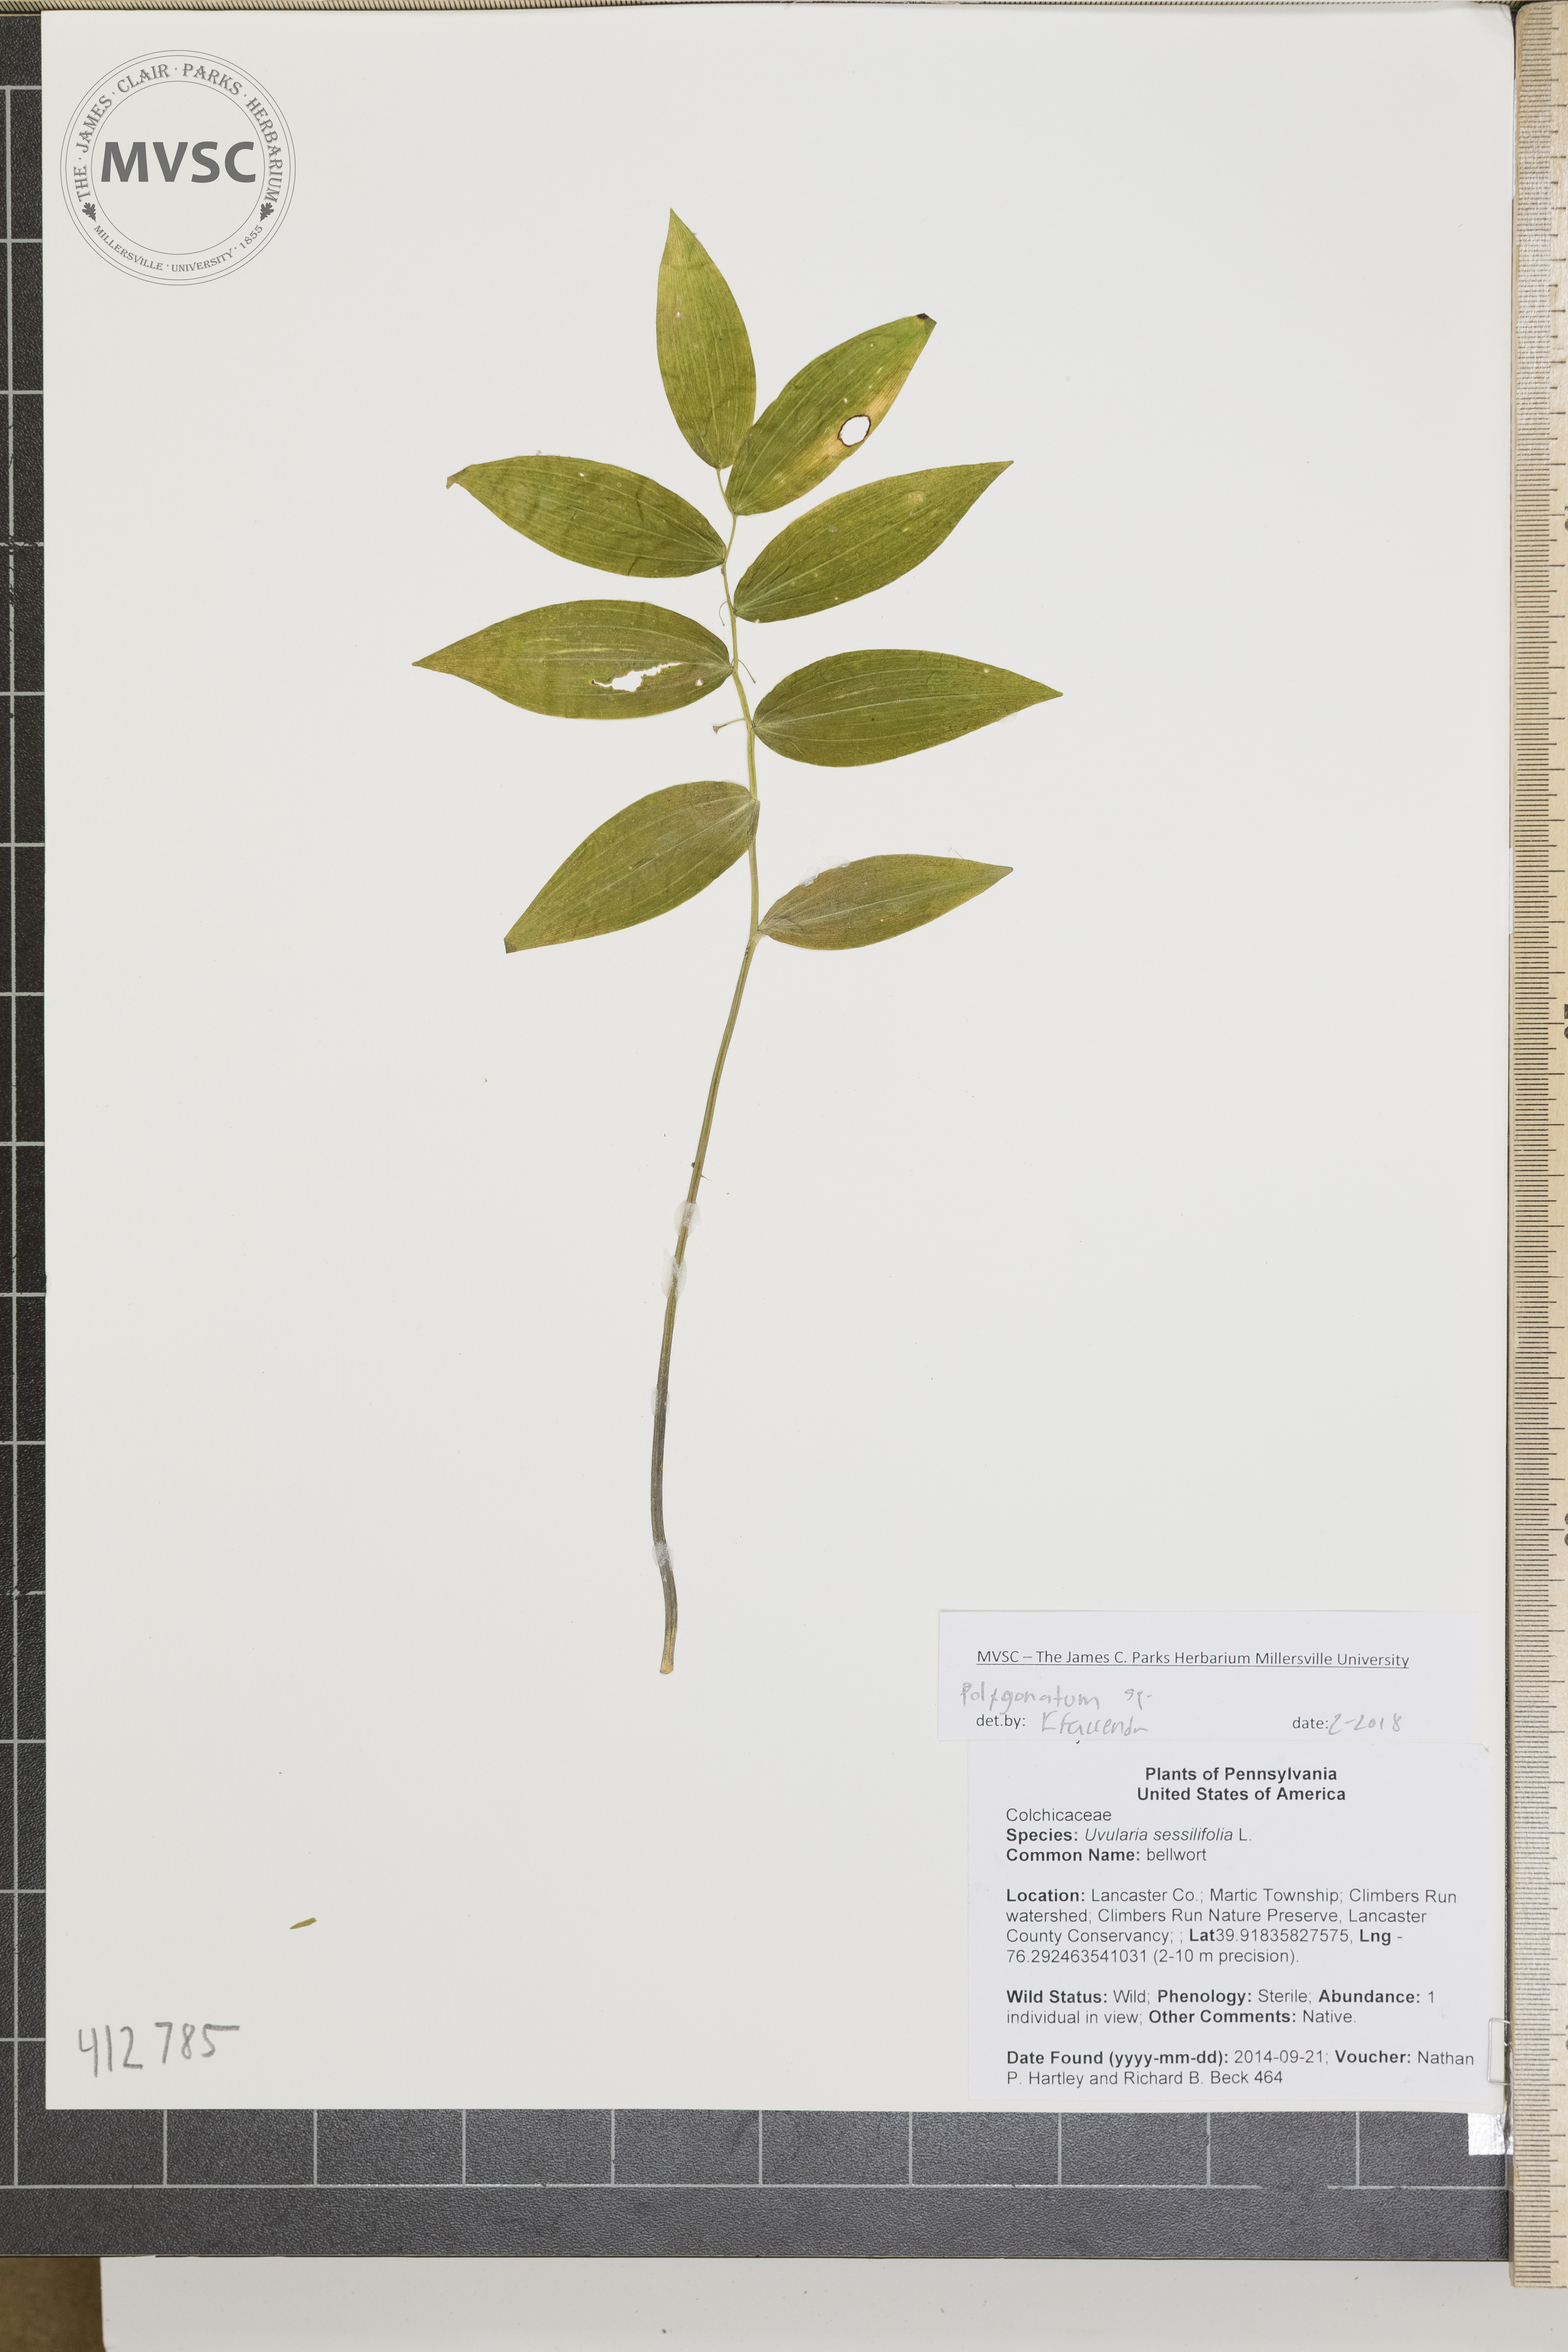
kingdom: Plantae
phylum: Tracheophyta
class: Liliopsida
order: Liliales
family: Colchicaceae
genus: Uvularia
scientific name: Uvularia sessilifolia
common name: sessileleaf bellwort
